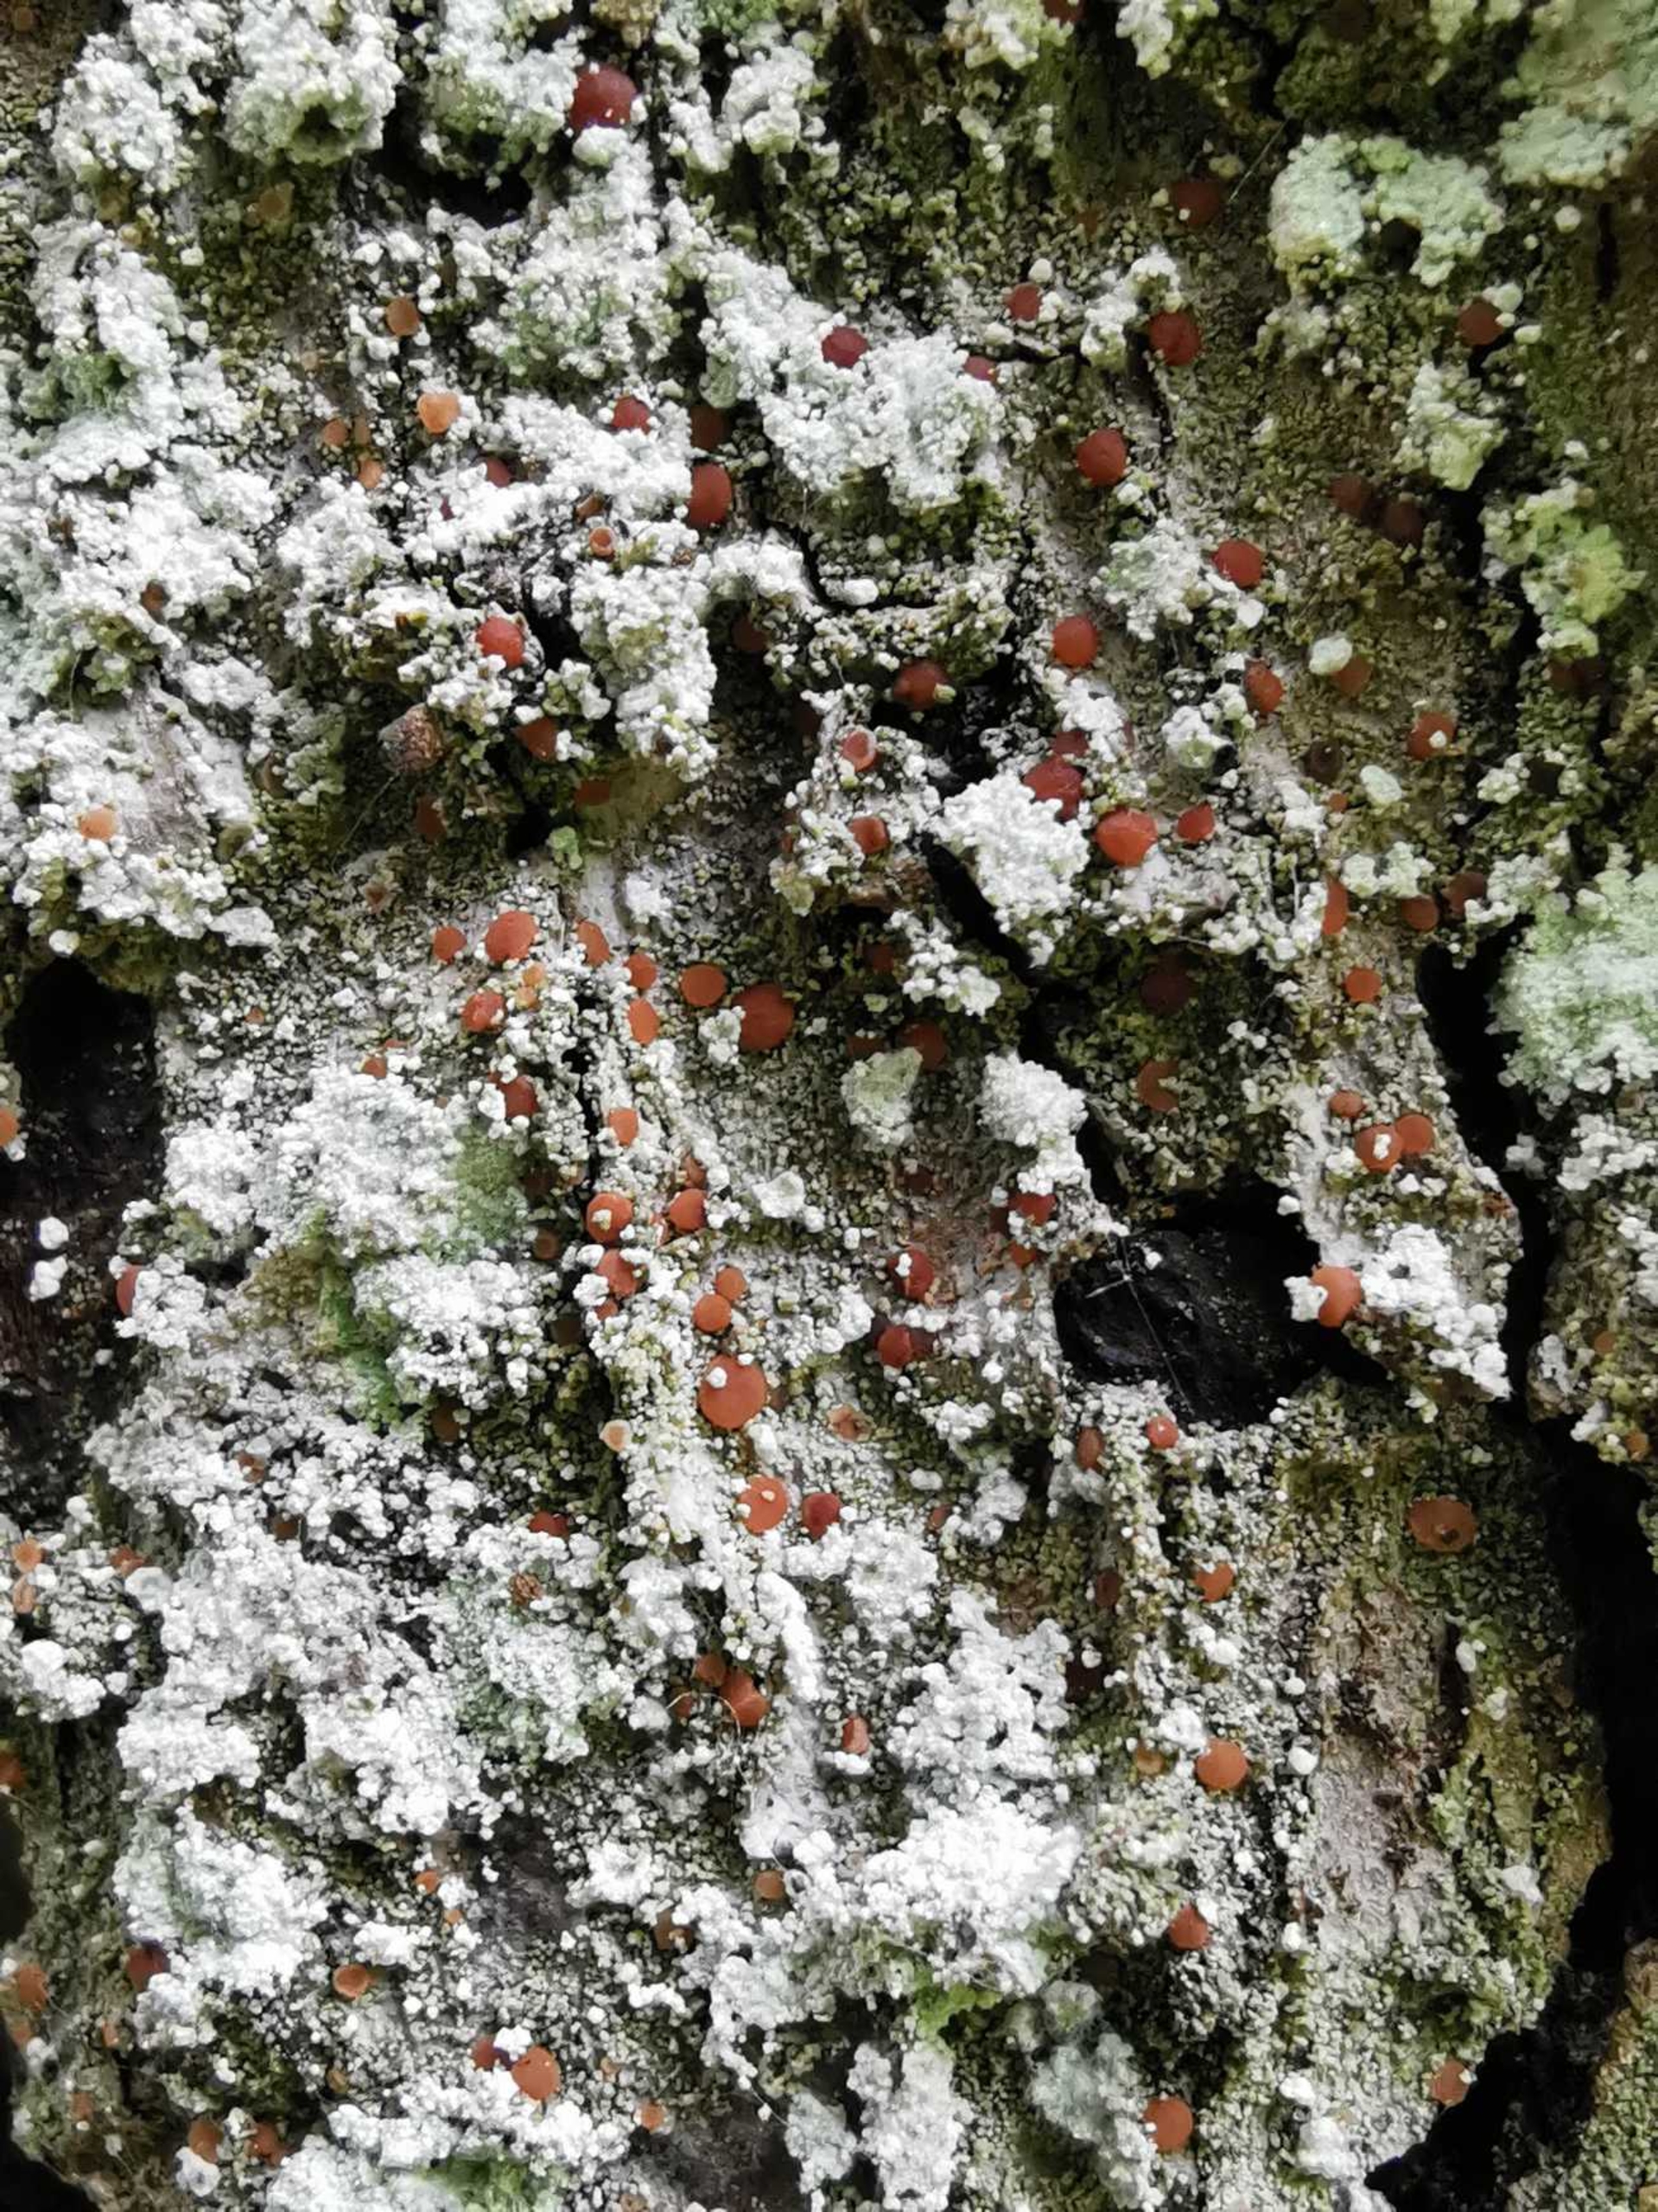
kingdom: Fungi
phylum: Ascomycota
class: Lecanoromycetes
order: Lecanorales
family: Ramalinaceae
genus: Bacidia
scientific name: Bacidia rubella
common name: Rødbrun tensporelav
